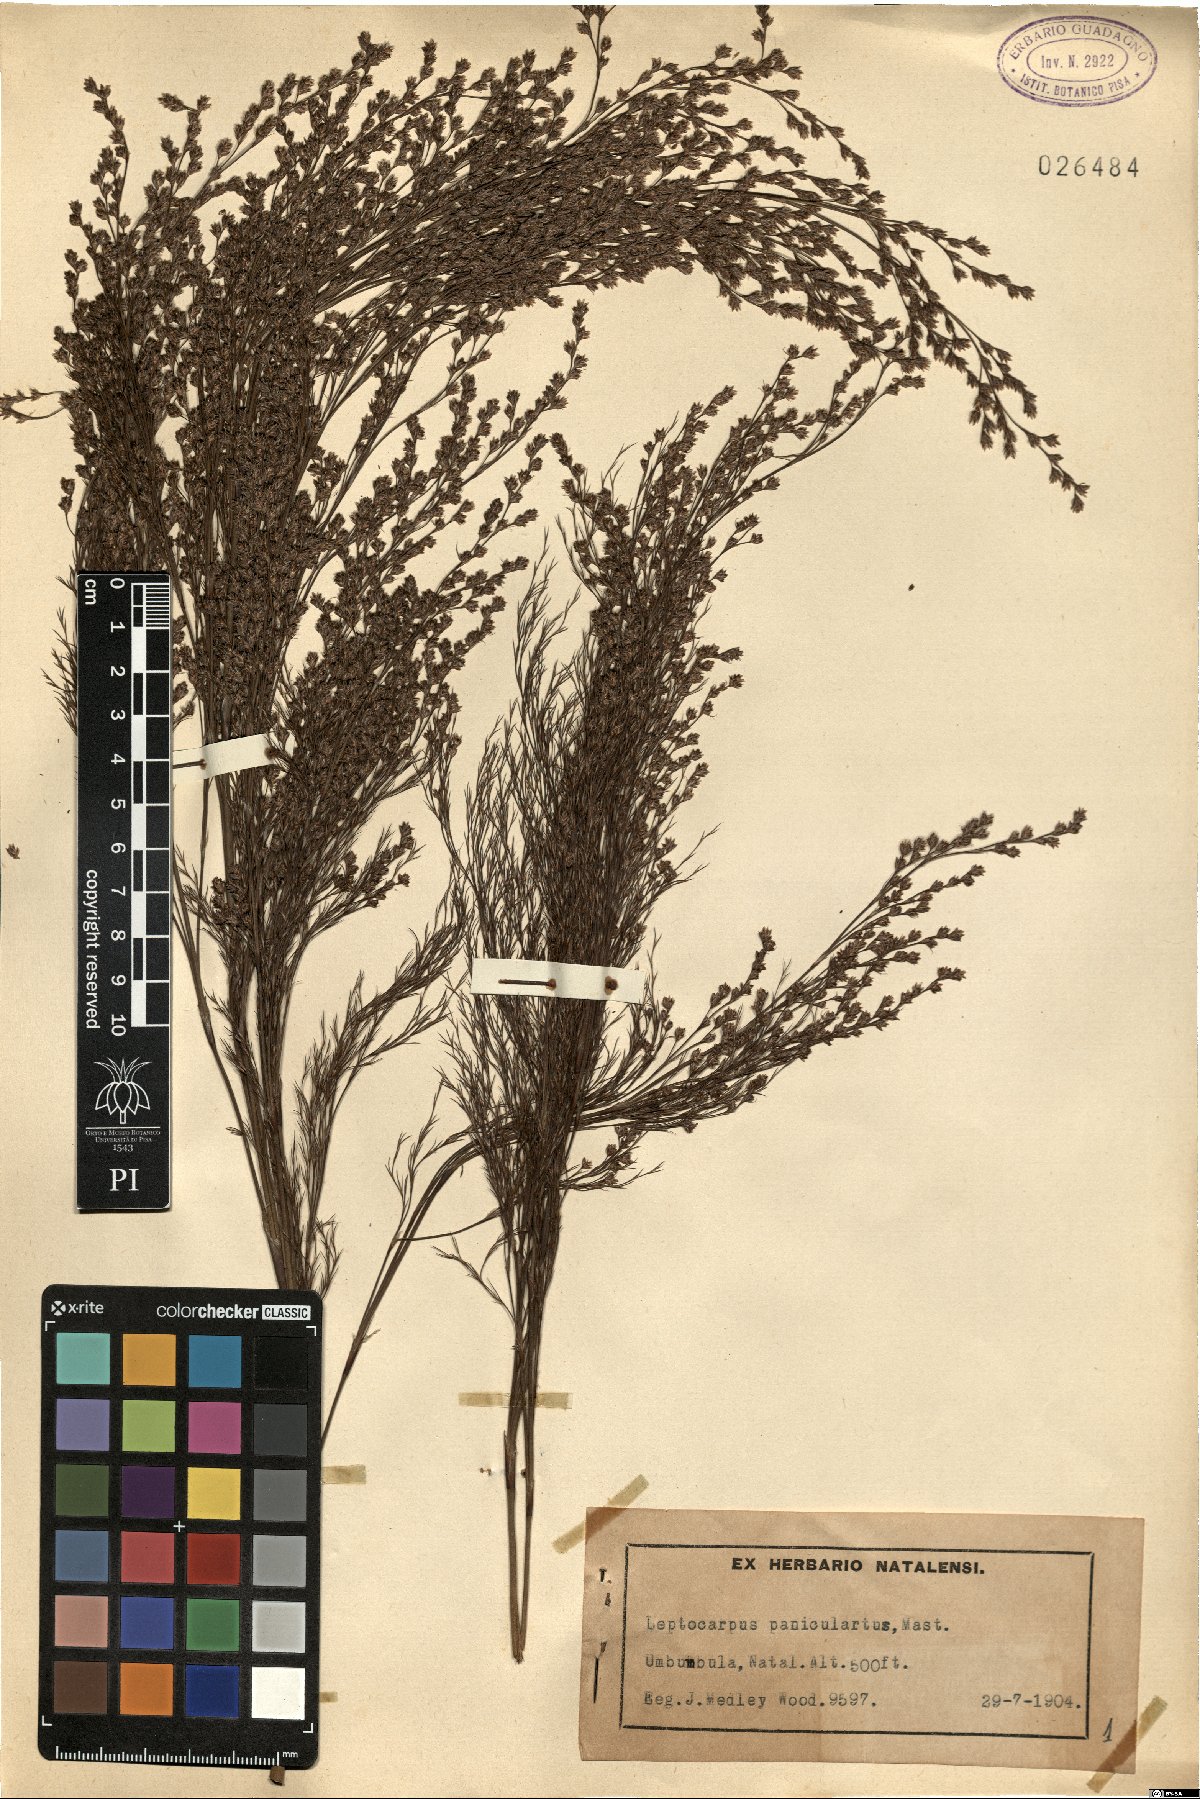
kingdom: Plantae
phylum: Tracheophyta
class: Liliopsida
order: Poales
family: Restionaceae
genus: Restio
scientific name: Restio paniculatus
